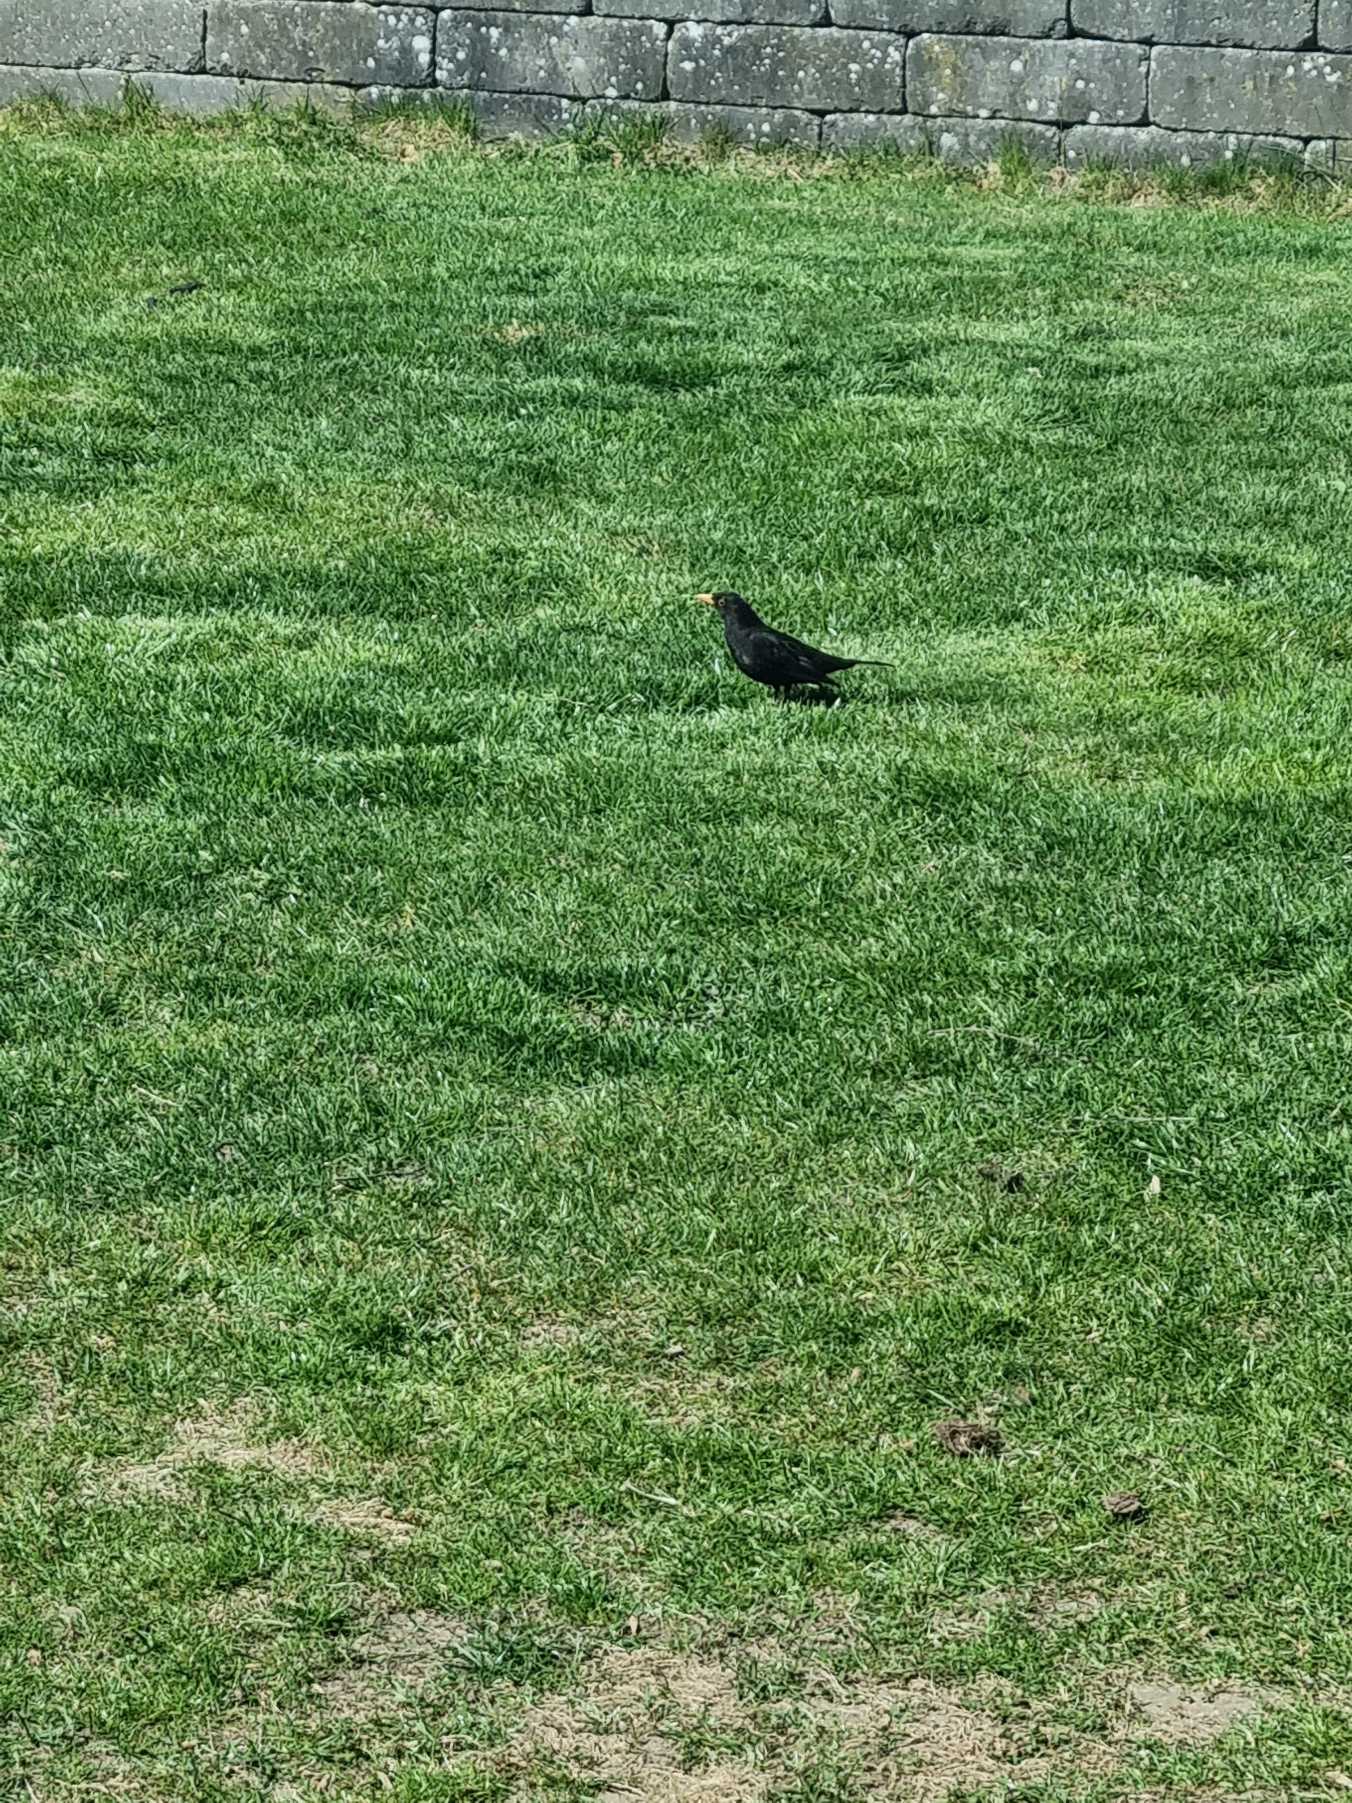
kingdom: Animalia
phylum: Chordata
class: Aves
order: Passeriformes
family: Turdidae
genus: Turdus
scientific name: Turdus merula
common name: Solsort
